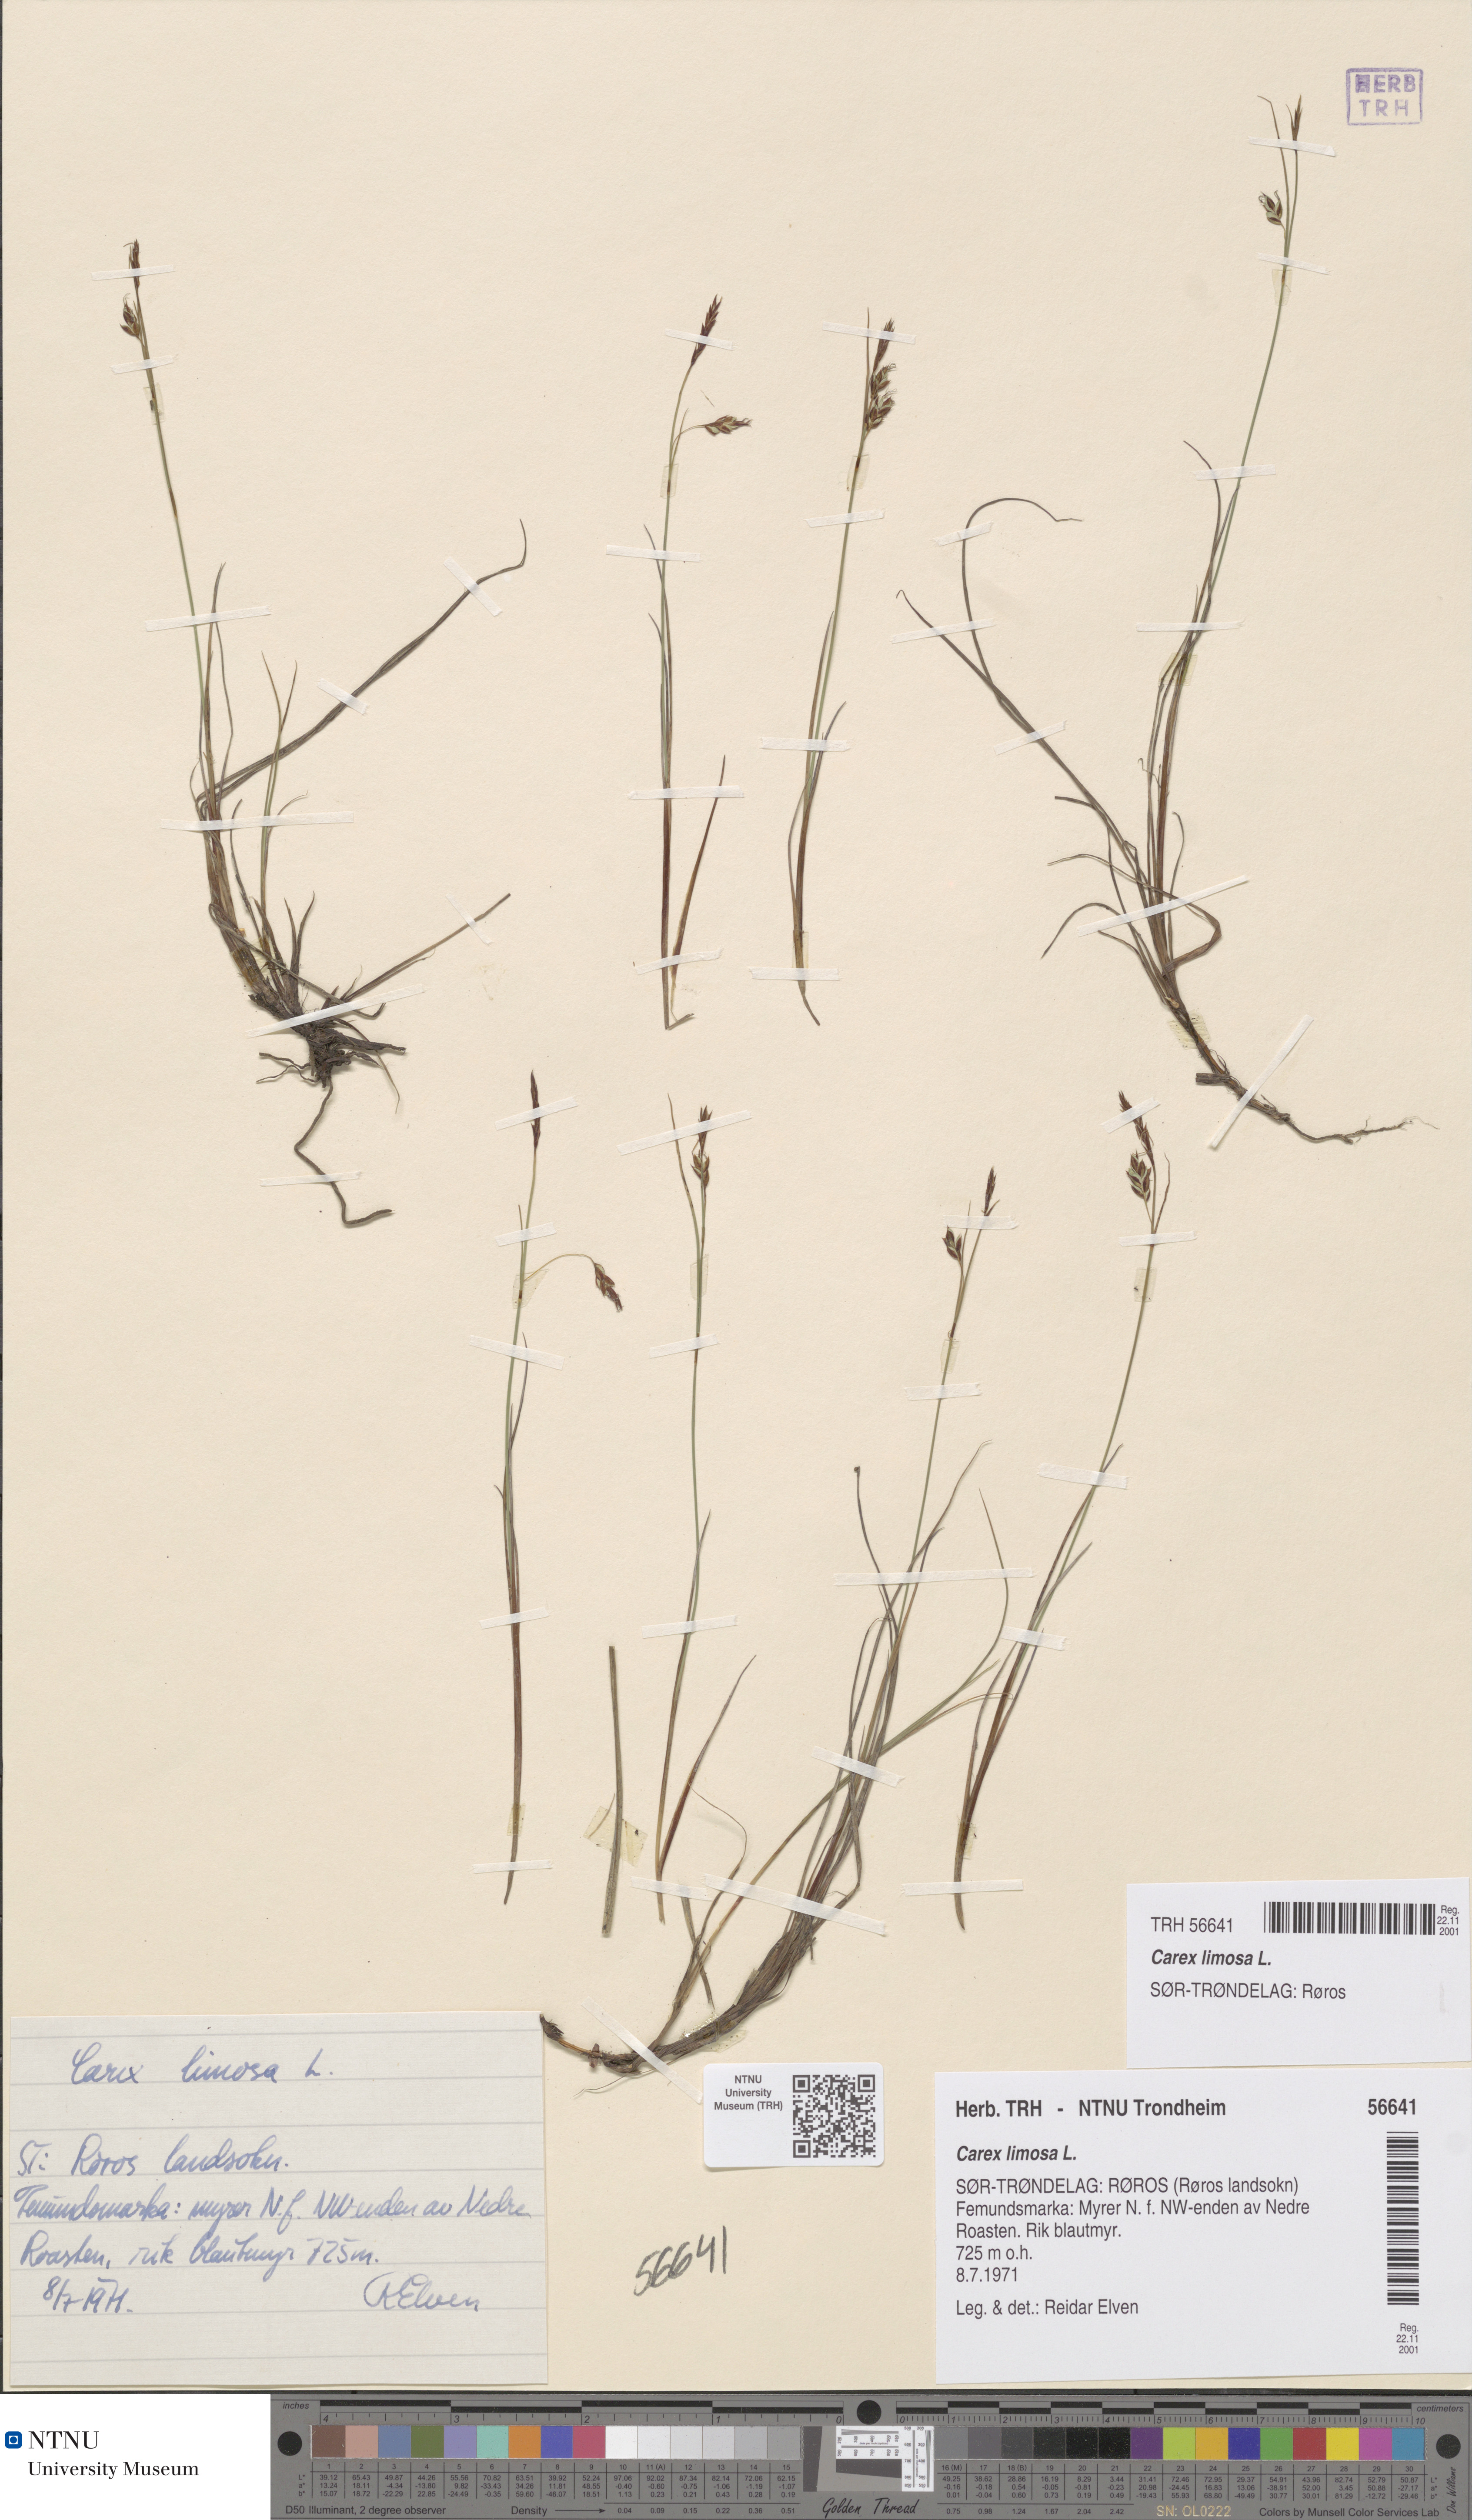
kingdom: Plantae
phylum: Tracheophyta
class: Liliopsida
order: Poales
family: Cyperaceae
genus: Carex
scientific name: Carex limosa
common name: Bog sedge
